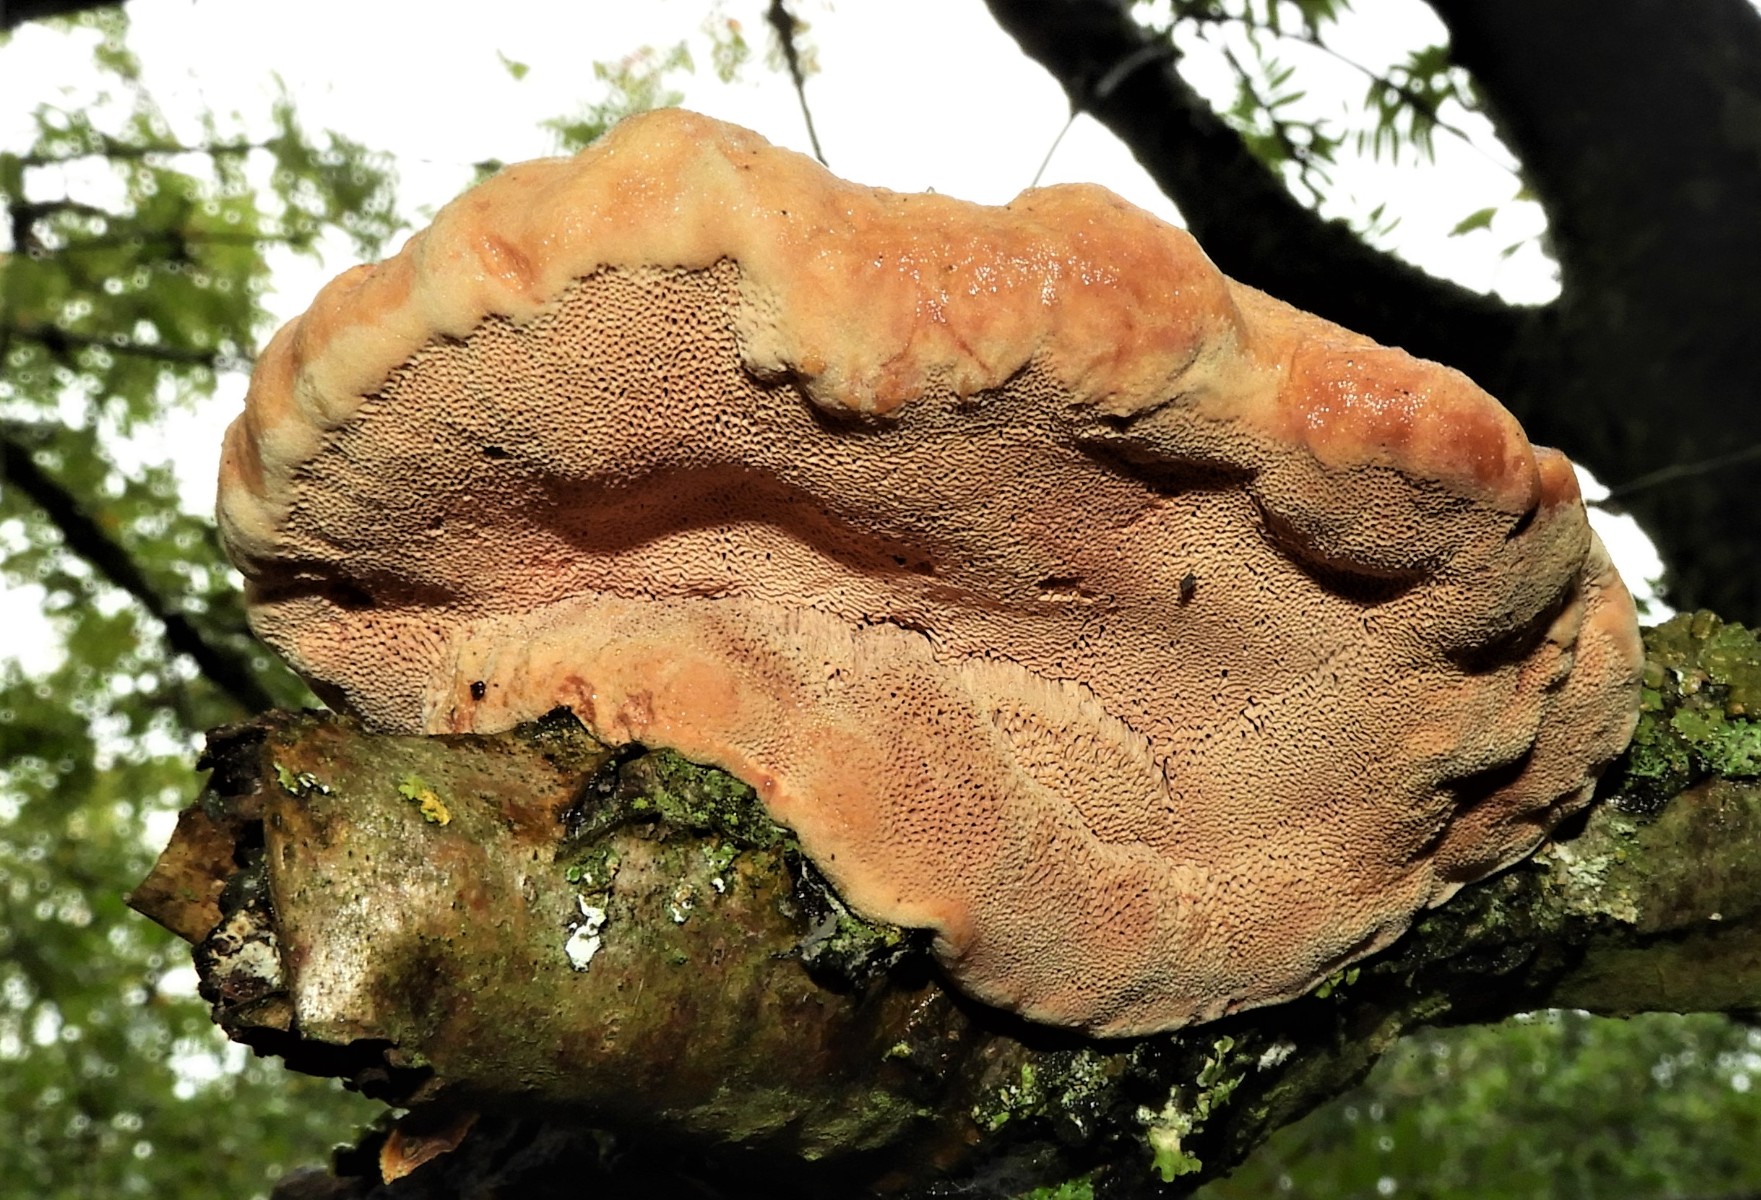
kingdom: Fungi
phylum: Basidiomycota
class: Agaricomycetes
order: Polyporales
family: Phanerochaetaceae
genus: Hapalopilus
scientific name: Hapalopilus rutilans
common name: rødlig okkerporesvamp
